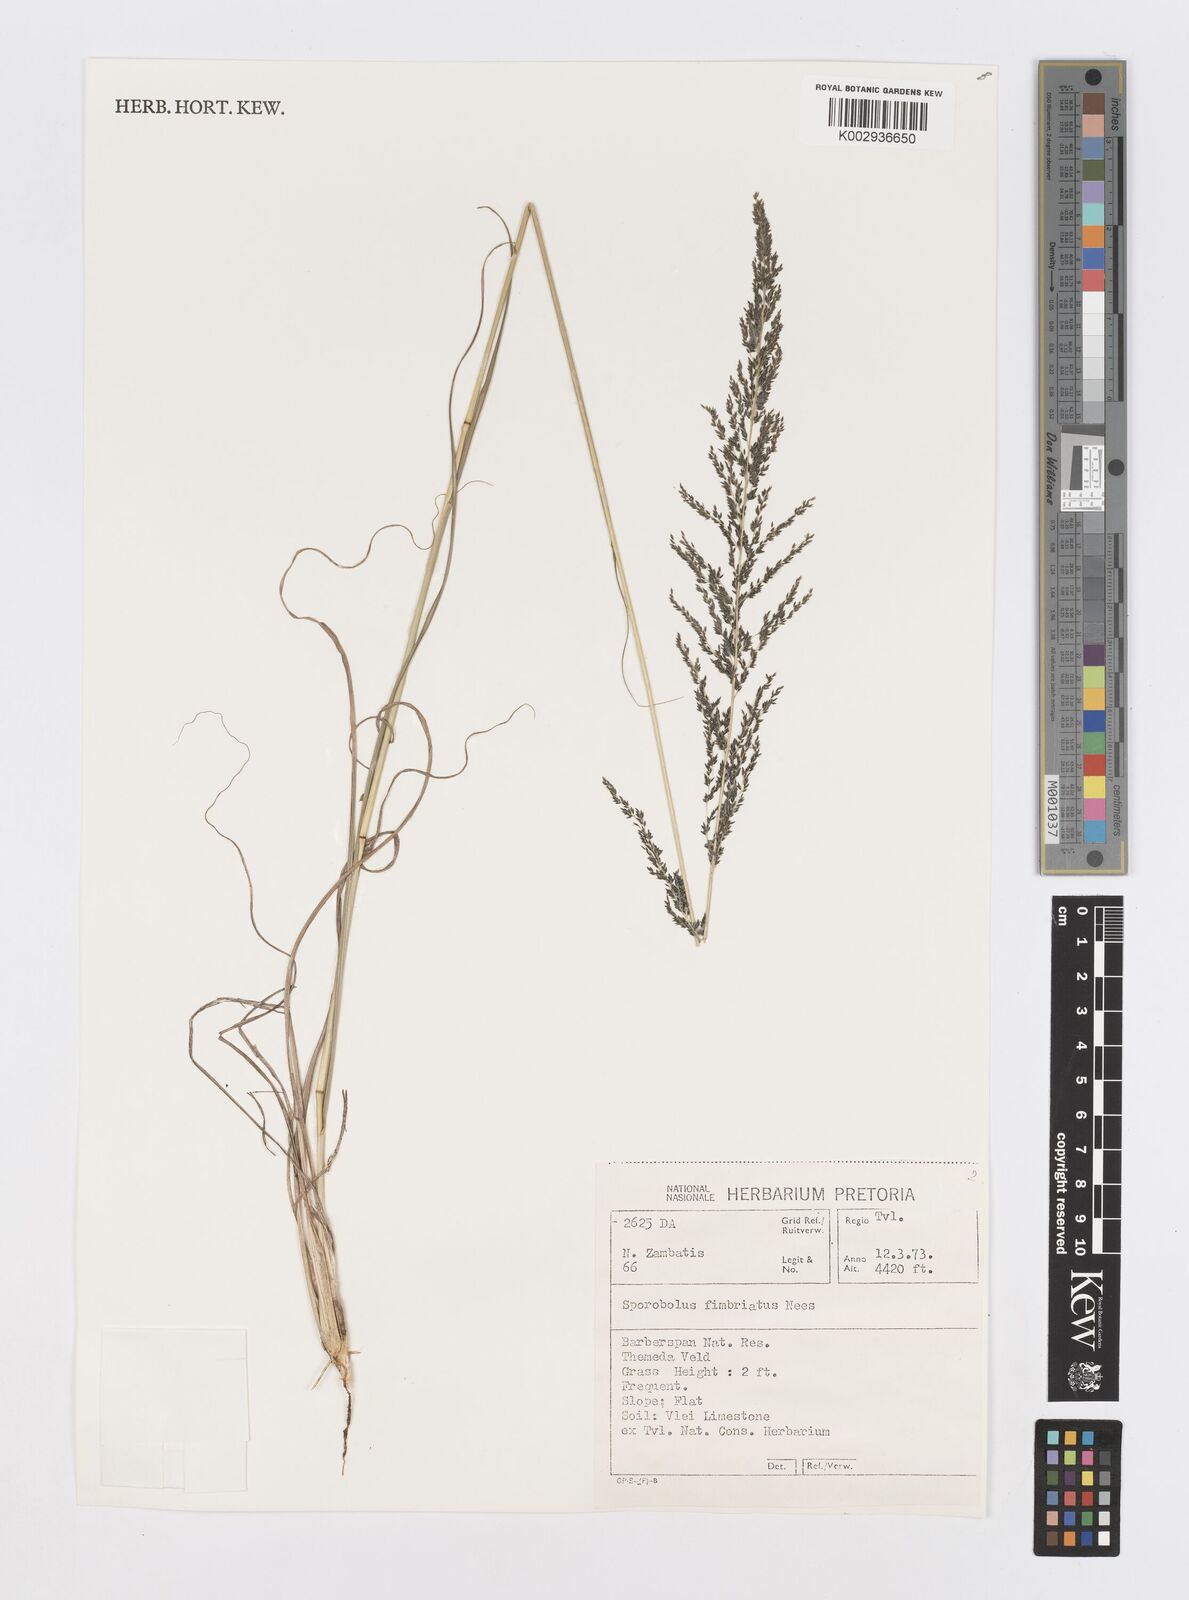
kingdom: Plantae
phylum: Tracheophyta
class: Liliopsida
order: Poales
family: Poaceae
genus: Sporobolus
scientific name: Sporobolus fimbriatus
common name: Fringed dropseed
